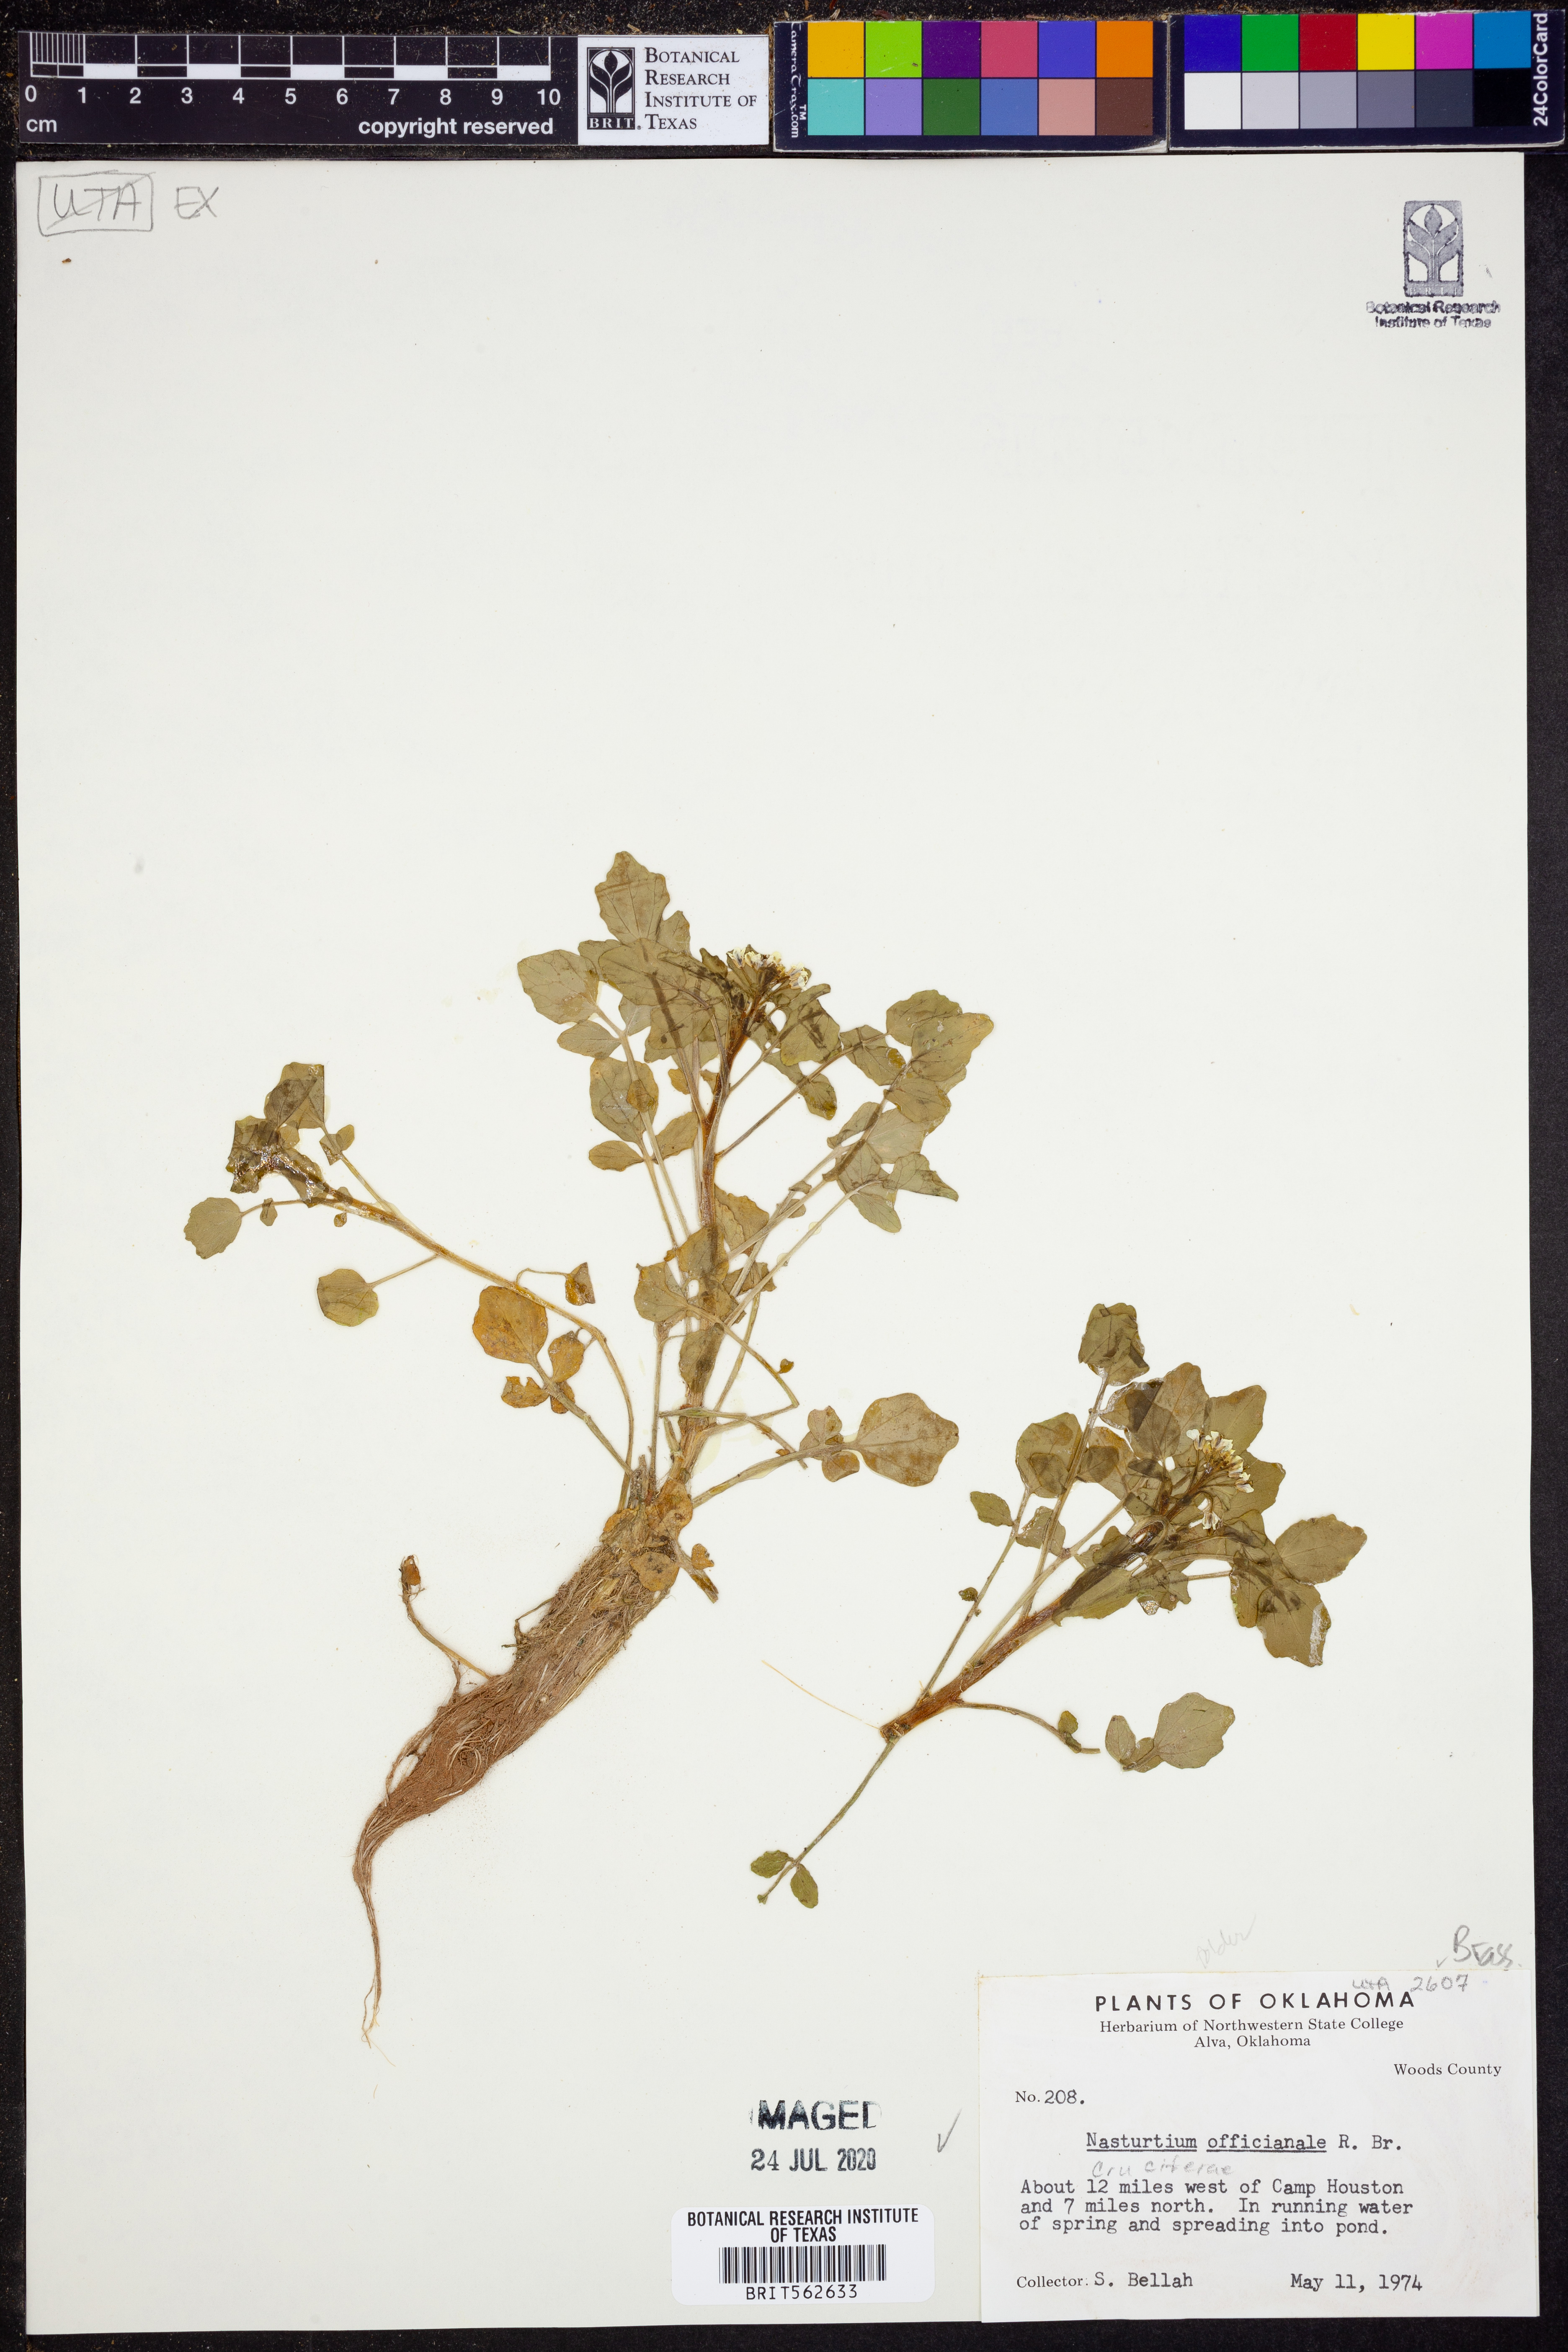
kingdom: Plantae
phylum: Tracheophyta
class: Magnoliopsida
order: Brassicales
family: Brassicaceae
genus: Nasturtium
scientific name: Nasturtium officinale
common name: Watercress
